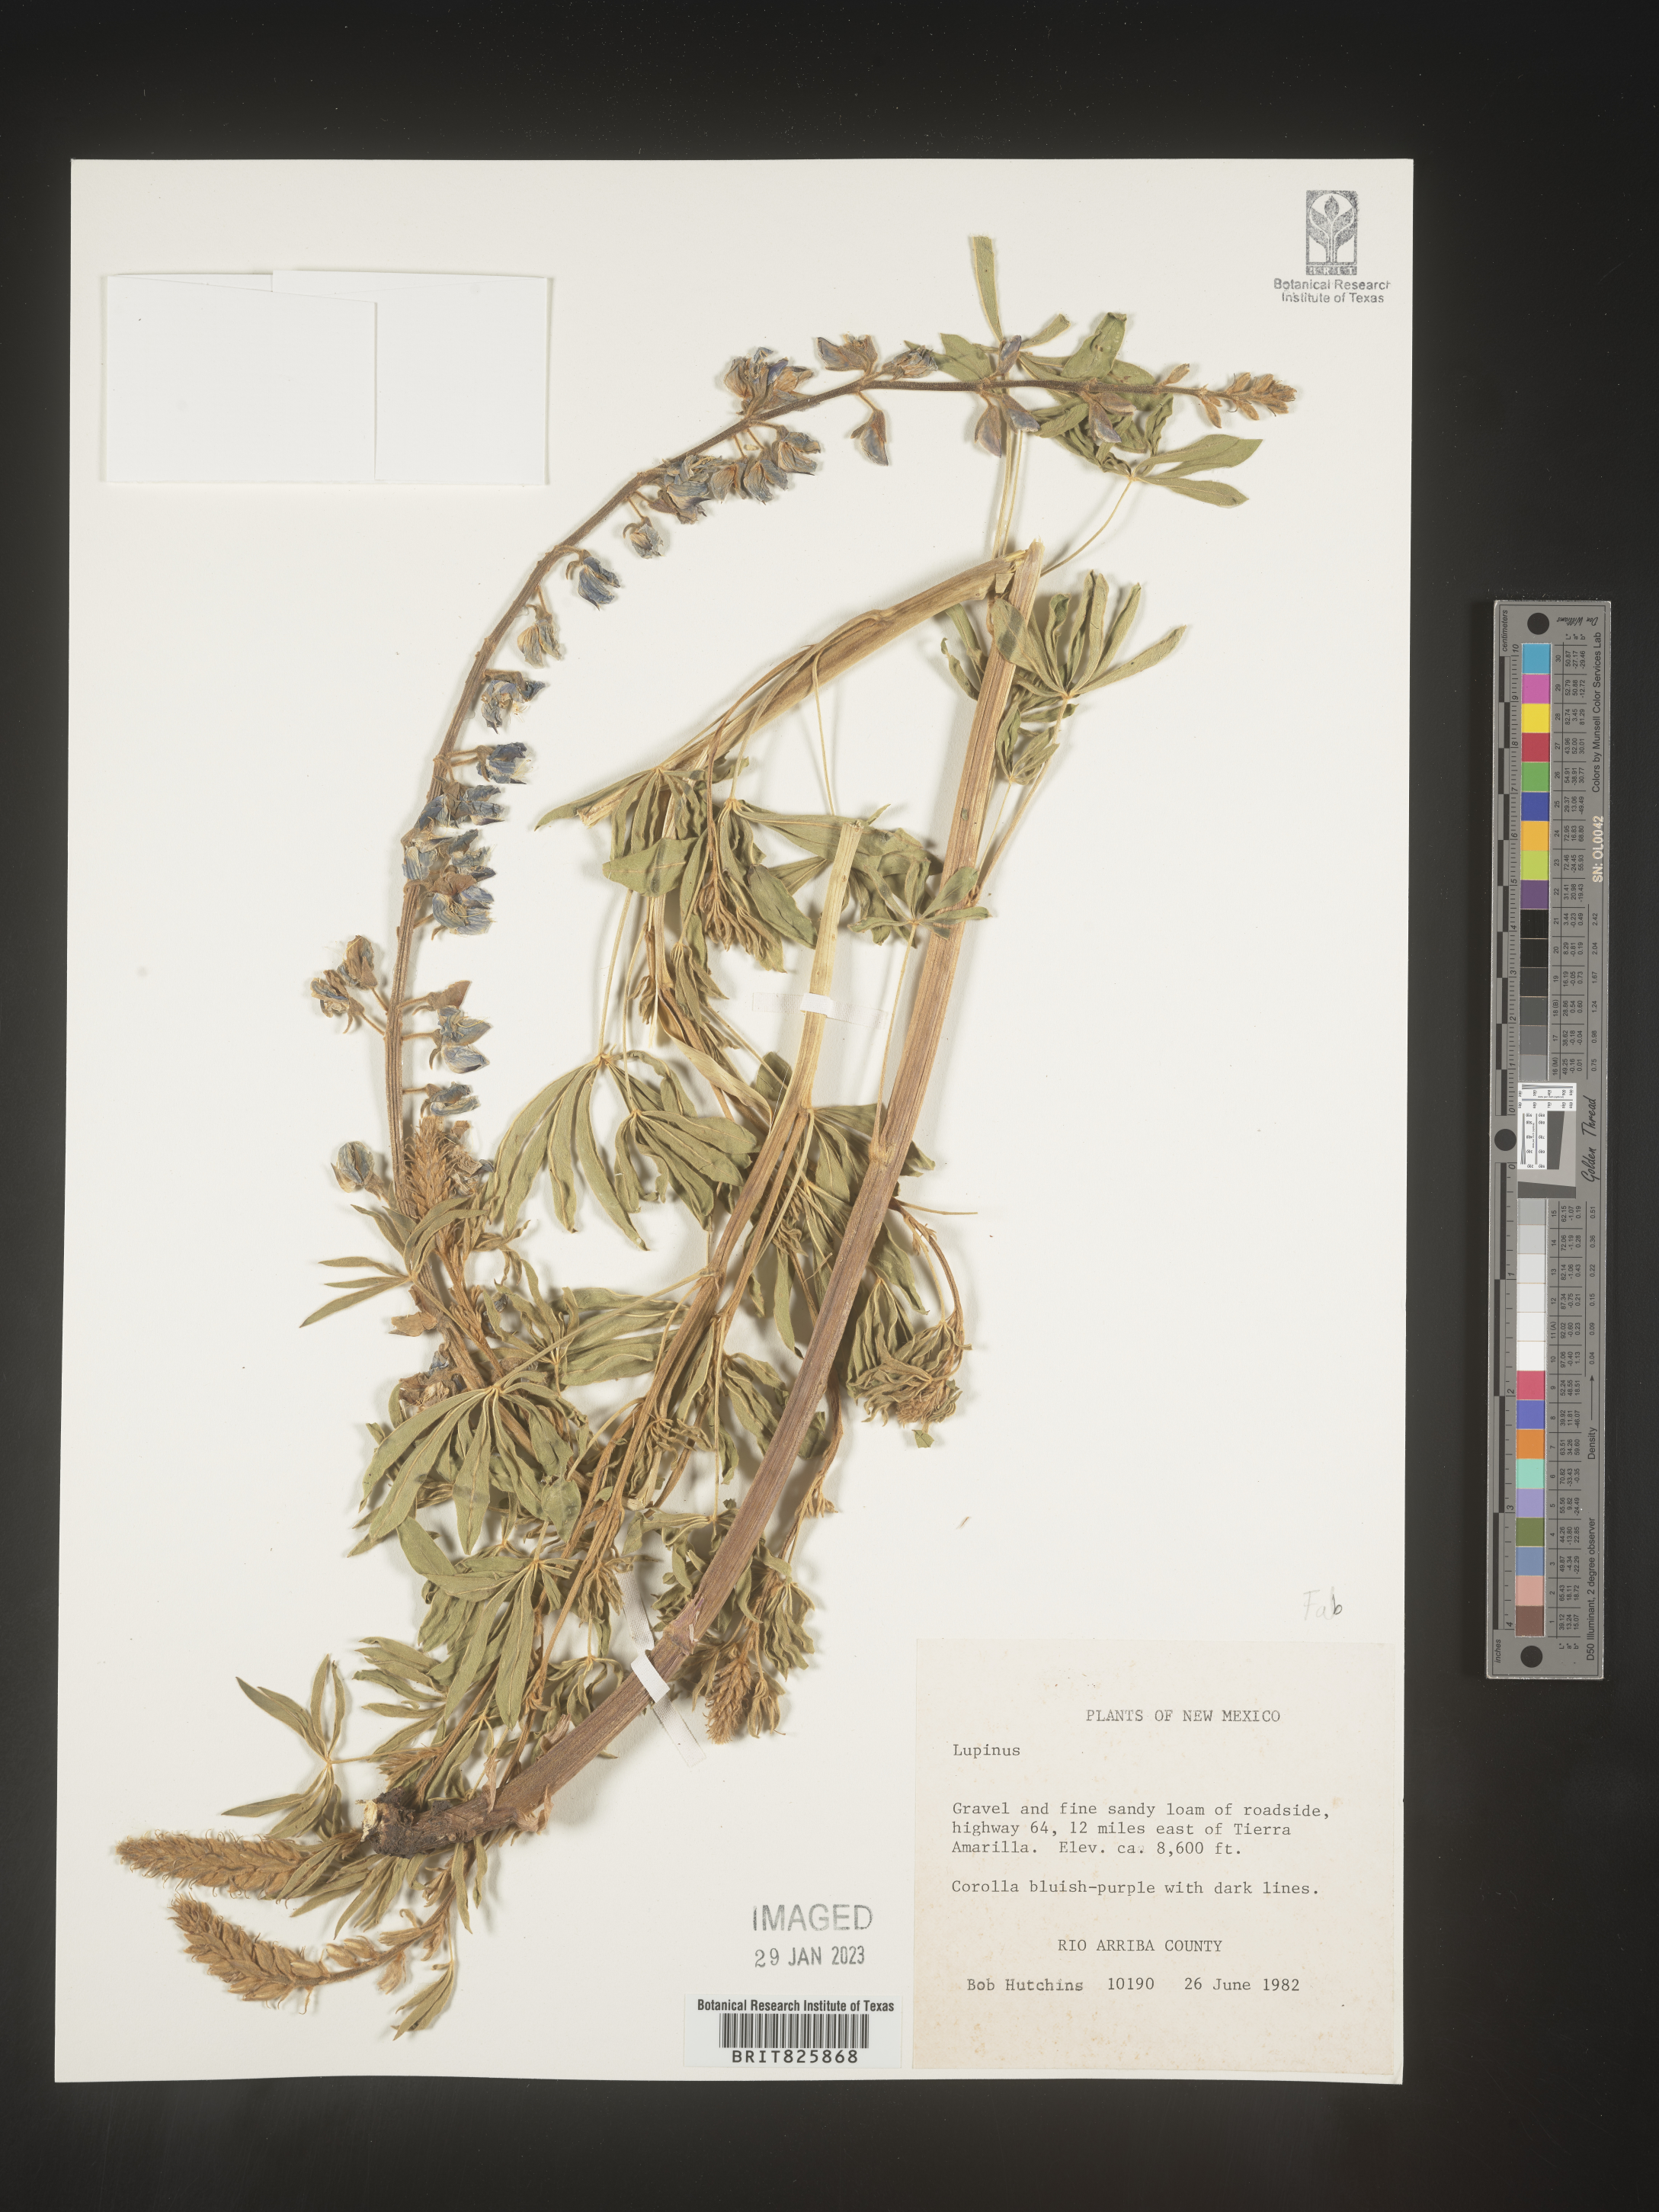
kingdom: Plantae
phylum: Tracheophyta
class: Magnoliopsida
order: Fabales
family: Fabaceae
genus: Lupinus
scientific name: Lupinus
